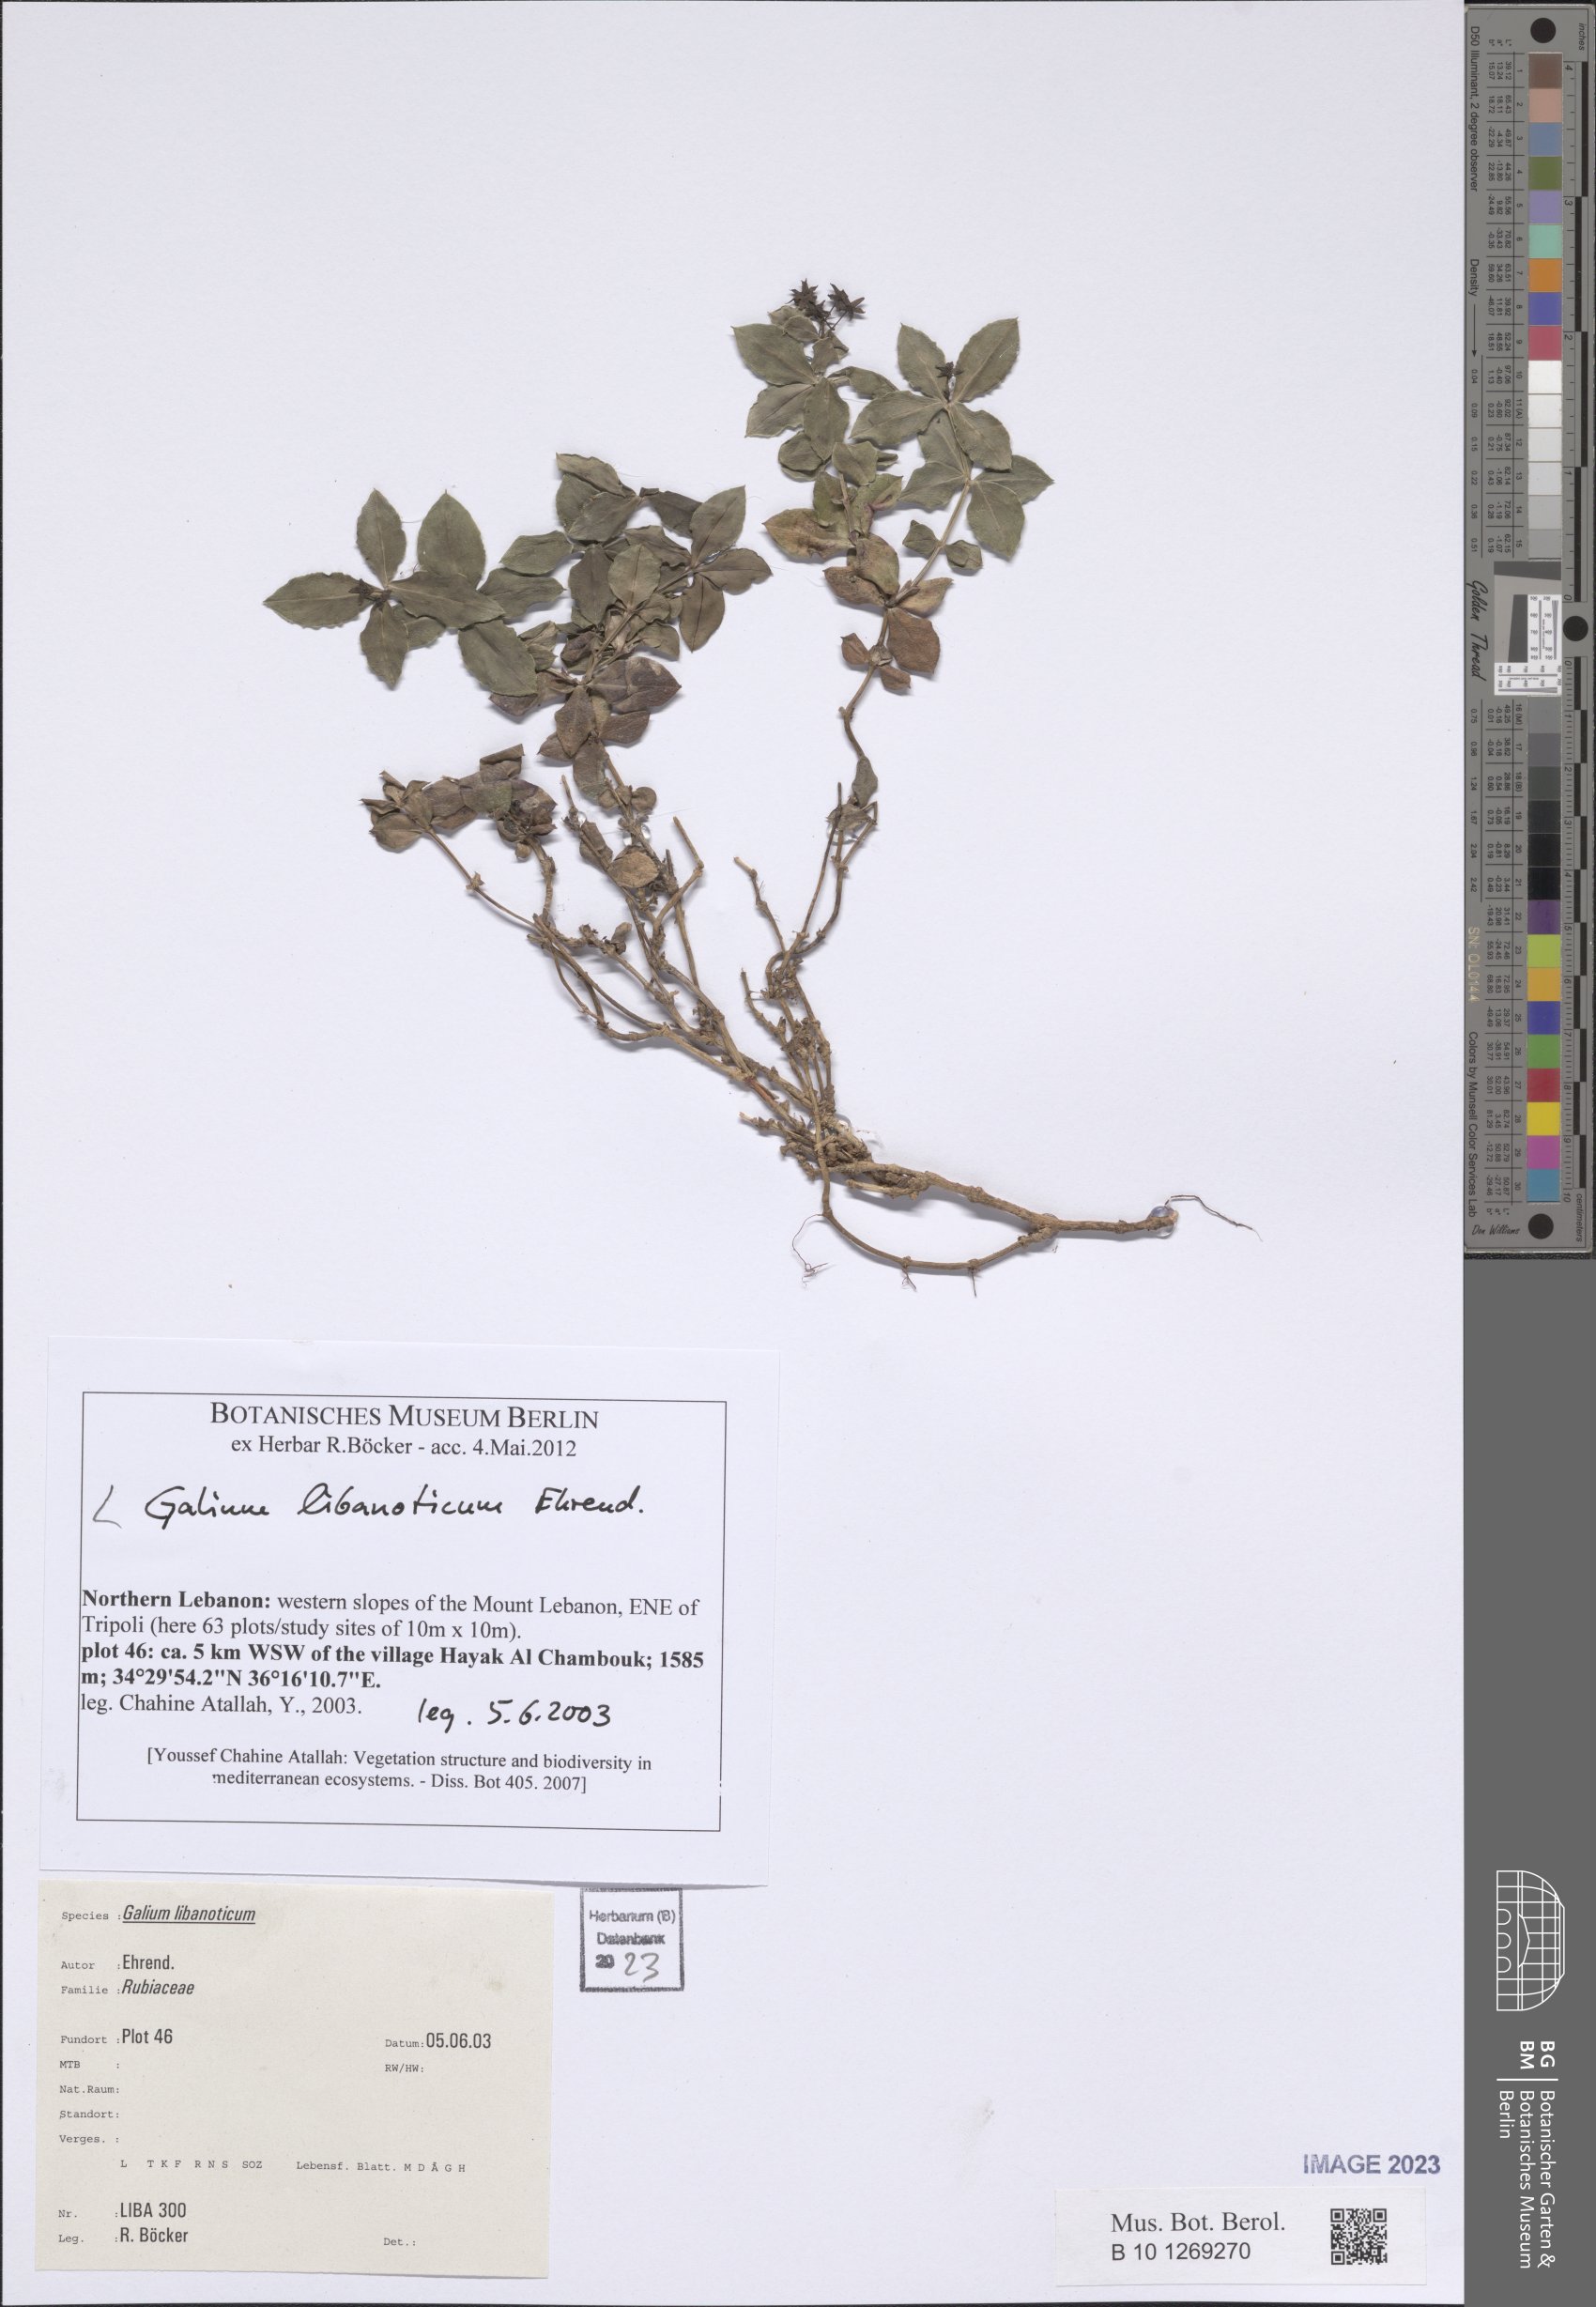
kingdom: Plantae
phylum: Tracheophyta
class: Magnoliopsida
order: Gentianales
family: Rubiaceae
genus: Galium
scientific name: Galium libanoticum
